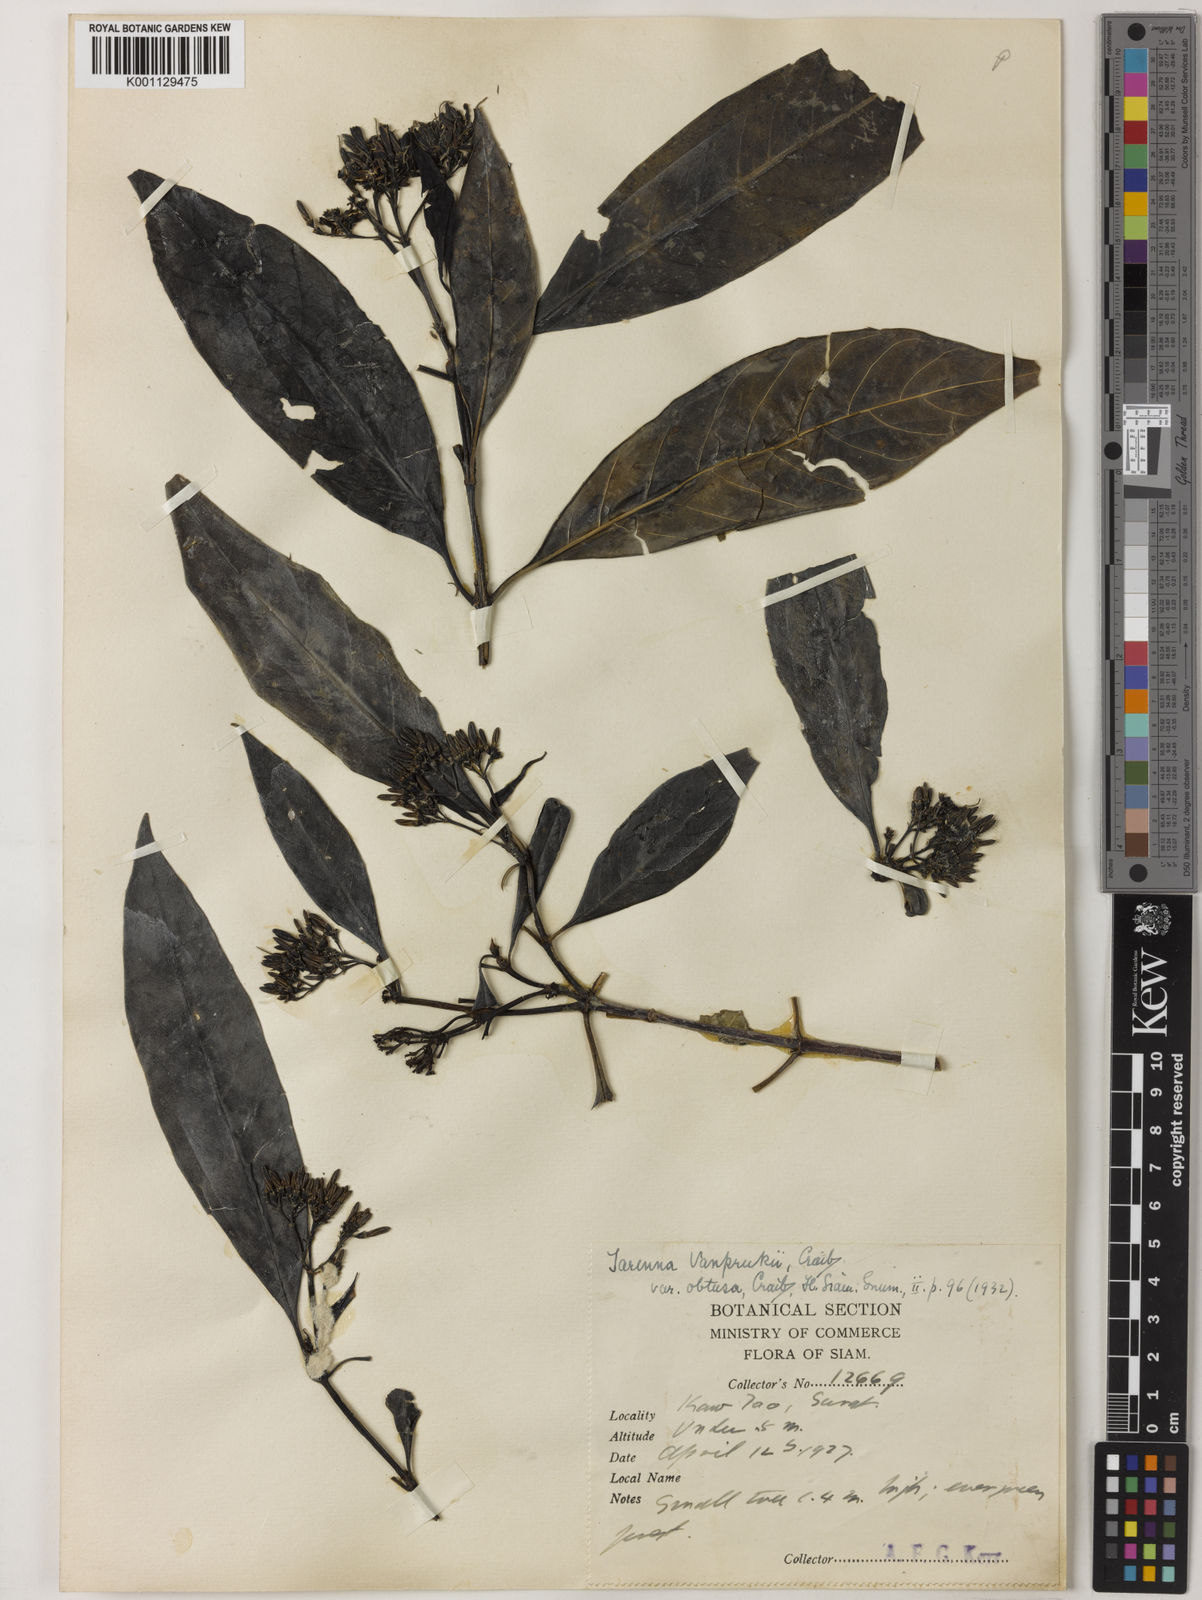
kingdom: Plantae
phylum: Tracheophyta
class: Magnoliopsida
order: Gentianales
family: Rubiaceae
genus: Tarenna
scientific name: Tarenna vanprukii
